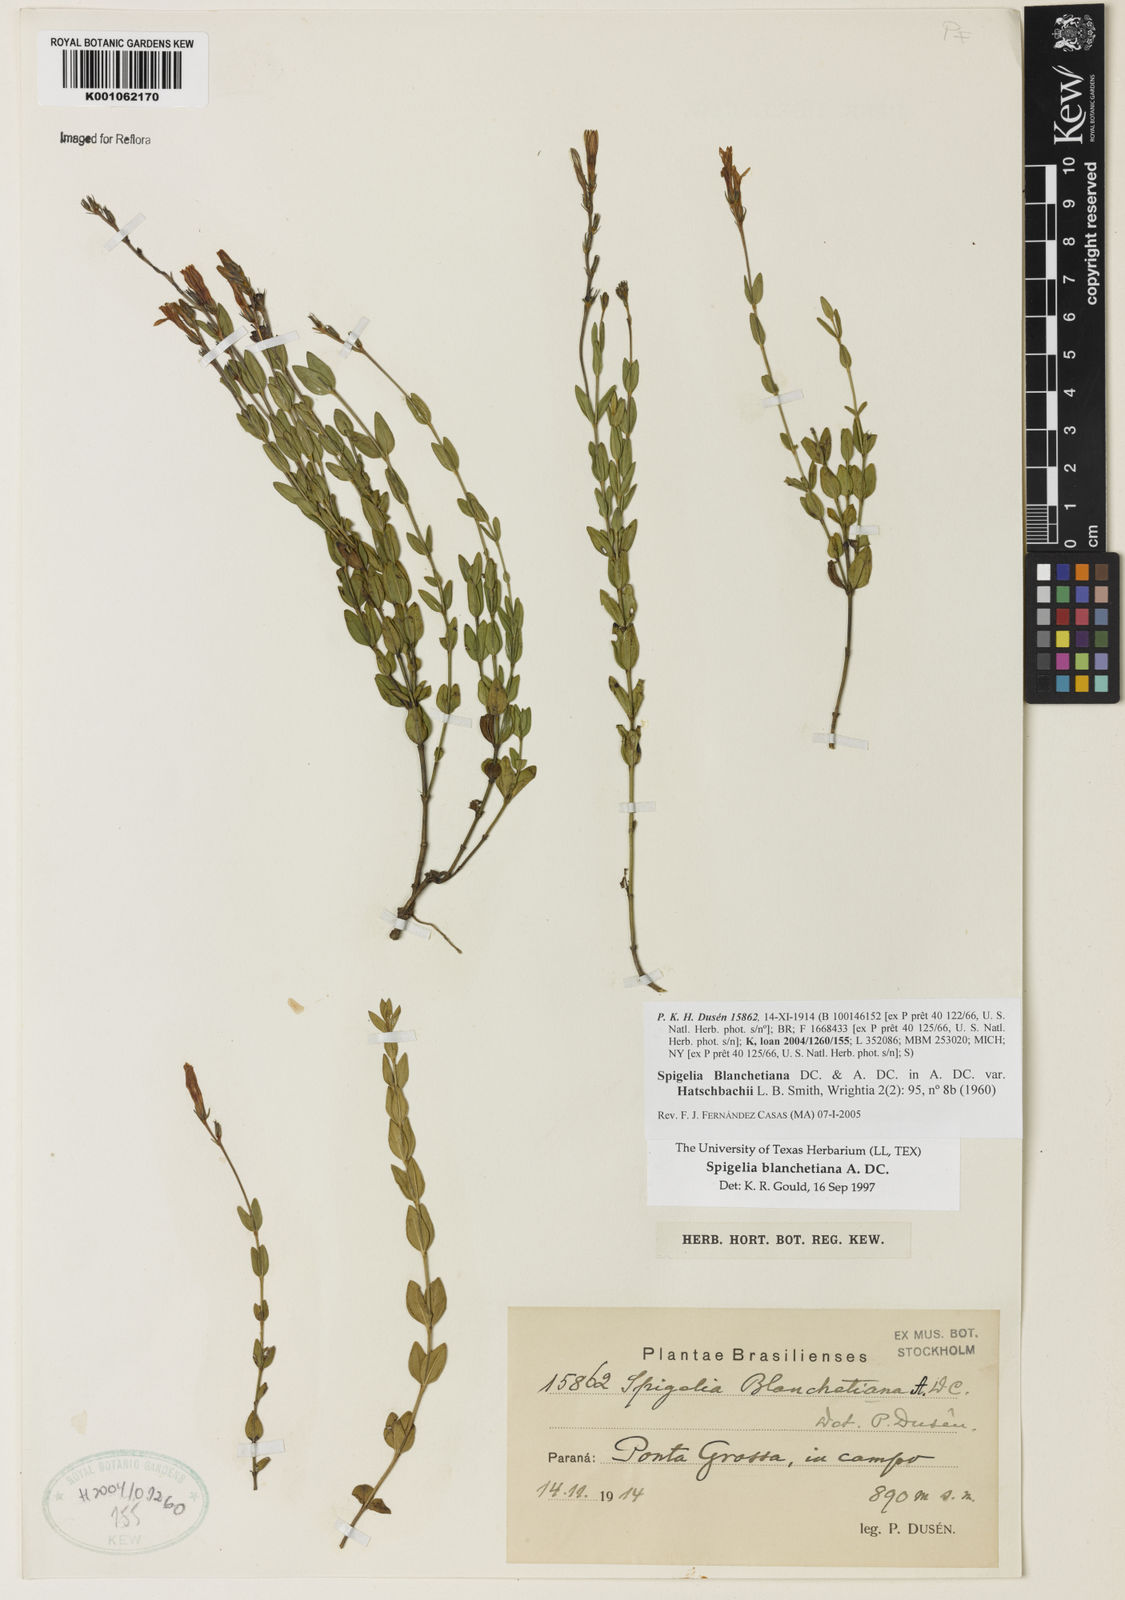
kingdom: Plantae
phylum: Tracheophyta
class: Magnoliopsida
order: Gentianales
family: Loganiaceae
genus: Spigelia
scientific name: Spigelia blanchetiana
